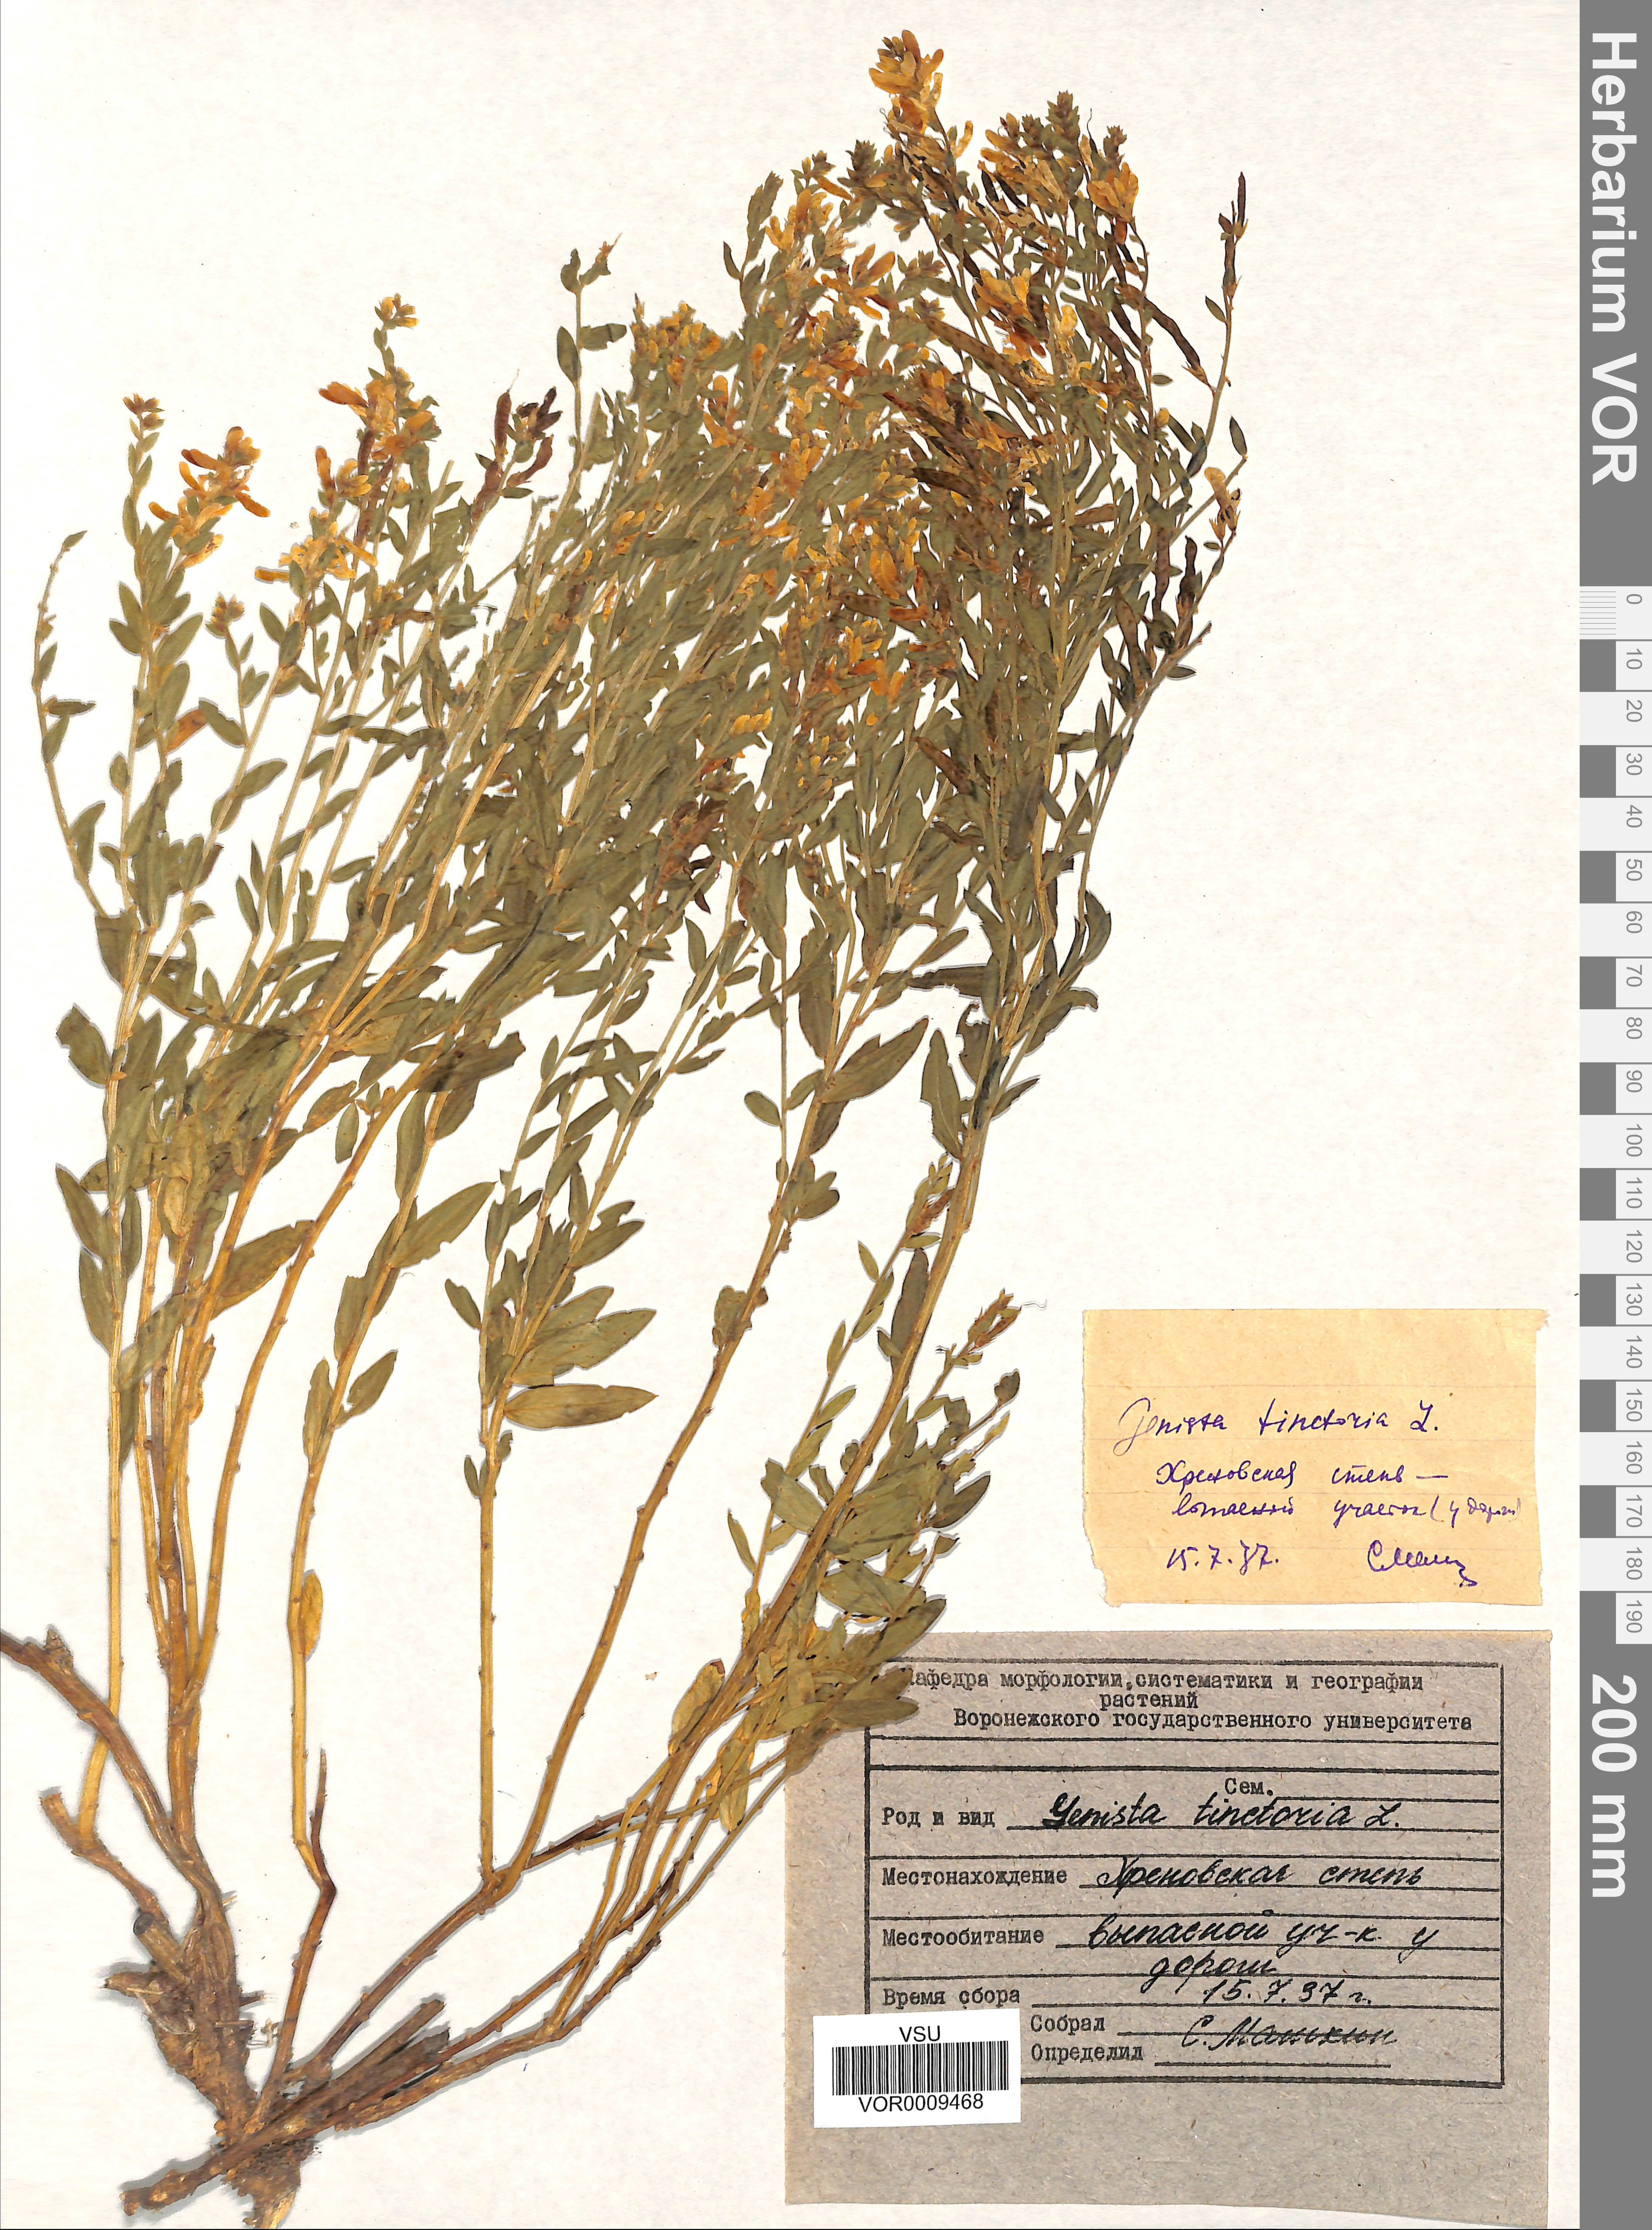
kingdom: Plantae
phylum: Tracheophyta
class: Magnoliopsida
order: Fabales
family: Fabaceae
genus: Genista
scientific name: Genista tinctoria
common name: Dyer's greenweed
